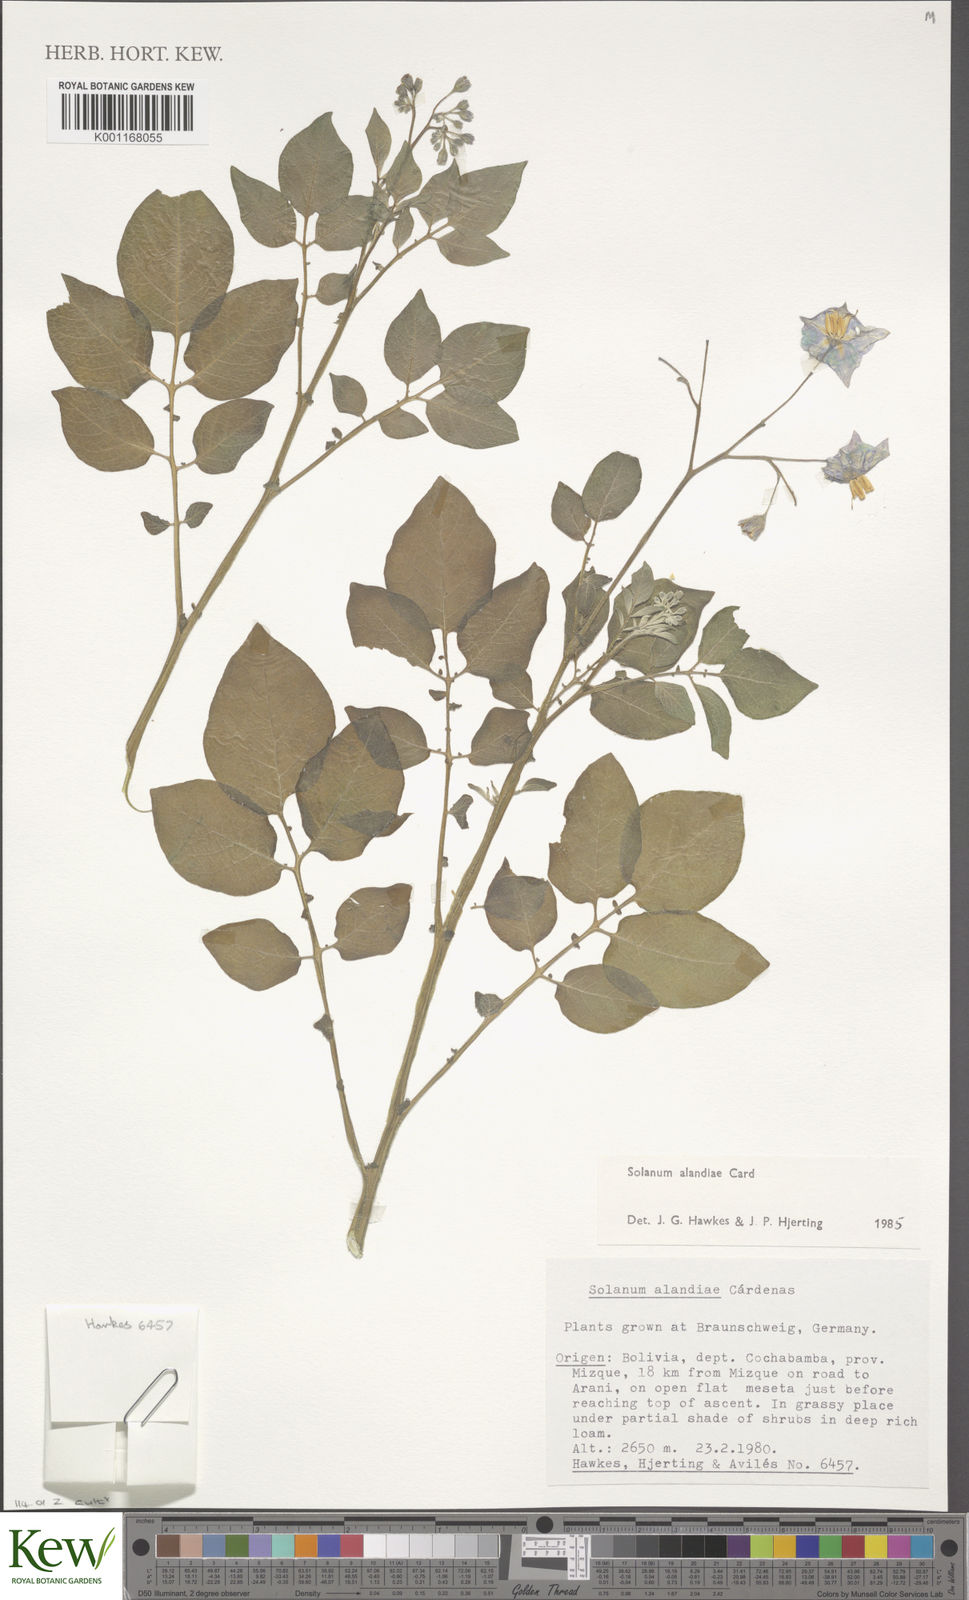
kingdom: Plantae
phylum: Tracheophyta
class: Magnoliopsida
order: Solanales
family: Solanaceae
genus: Solanum
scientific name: Solanum
